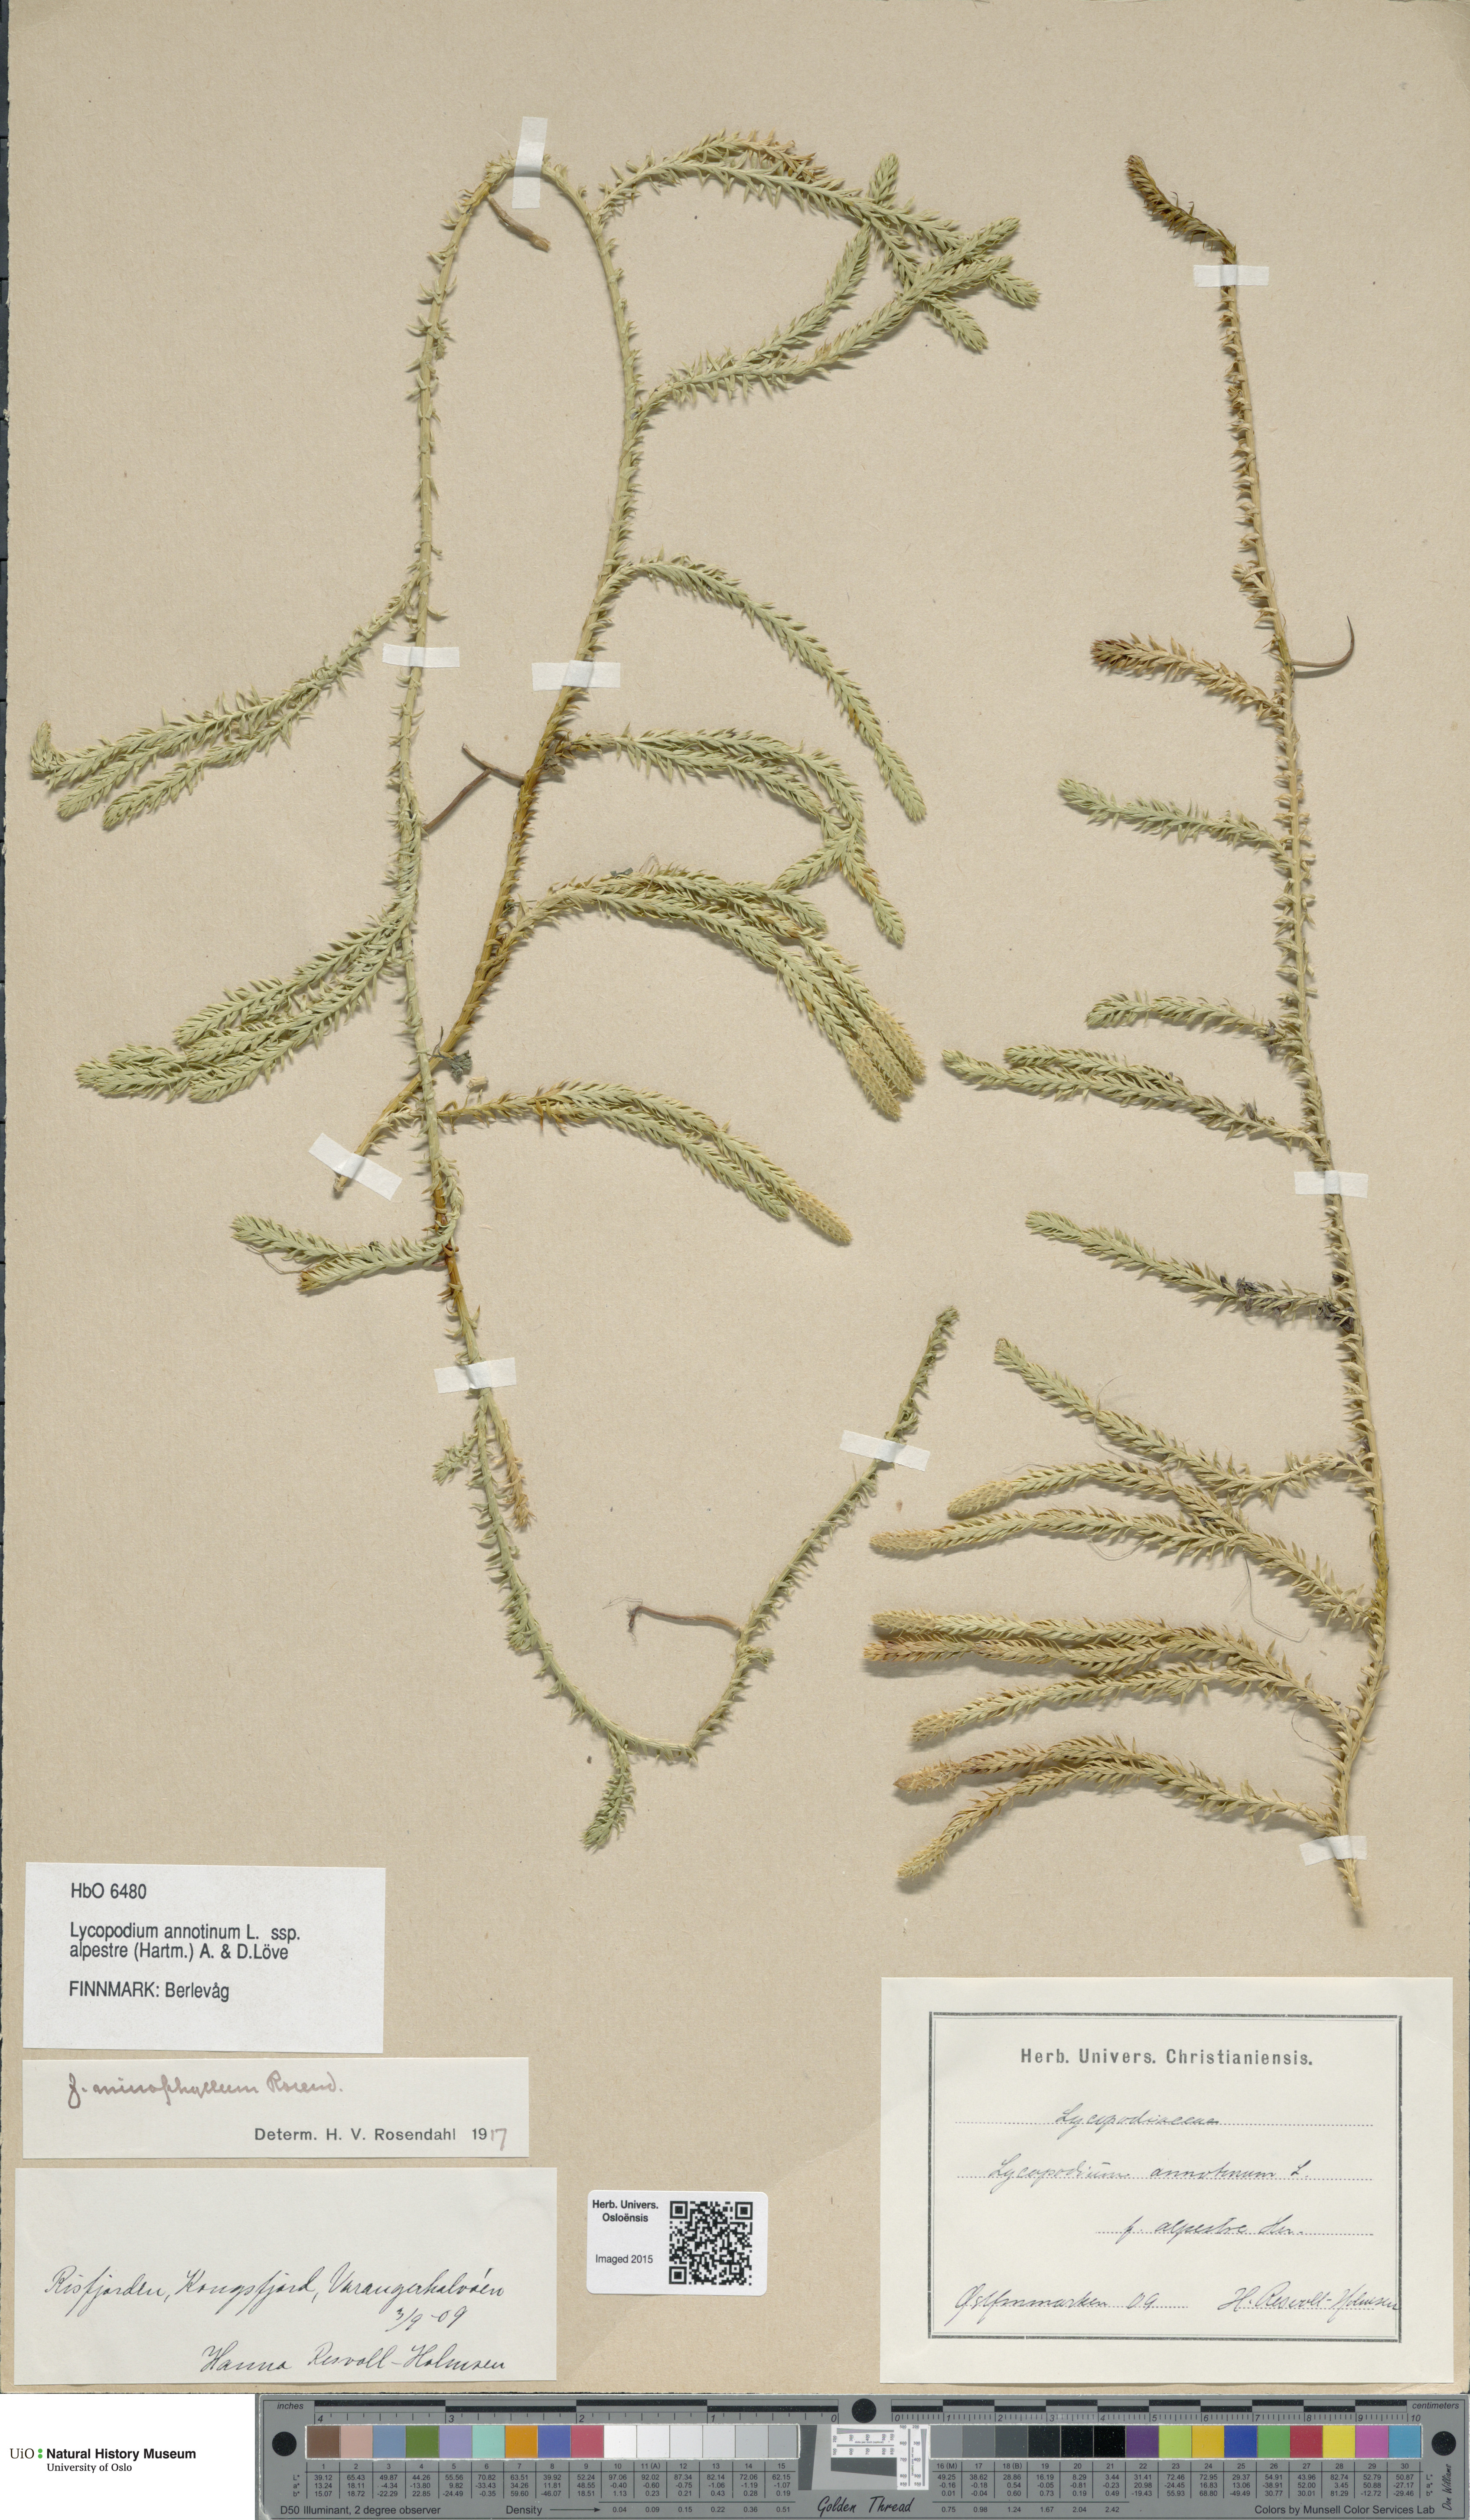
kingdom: Plantae
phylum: Tracheophyta
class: Lycopodiopsida
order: Lycopodiales
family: Lycopodiaceae
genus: Spinulum
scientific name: Spinulum annotinum
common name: Interrupted club-moss
